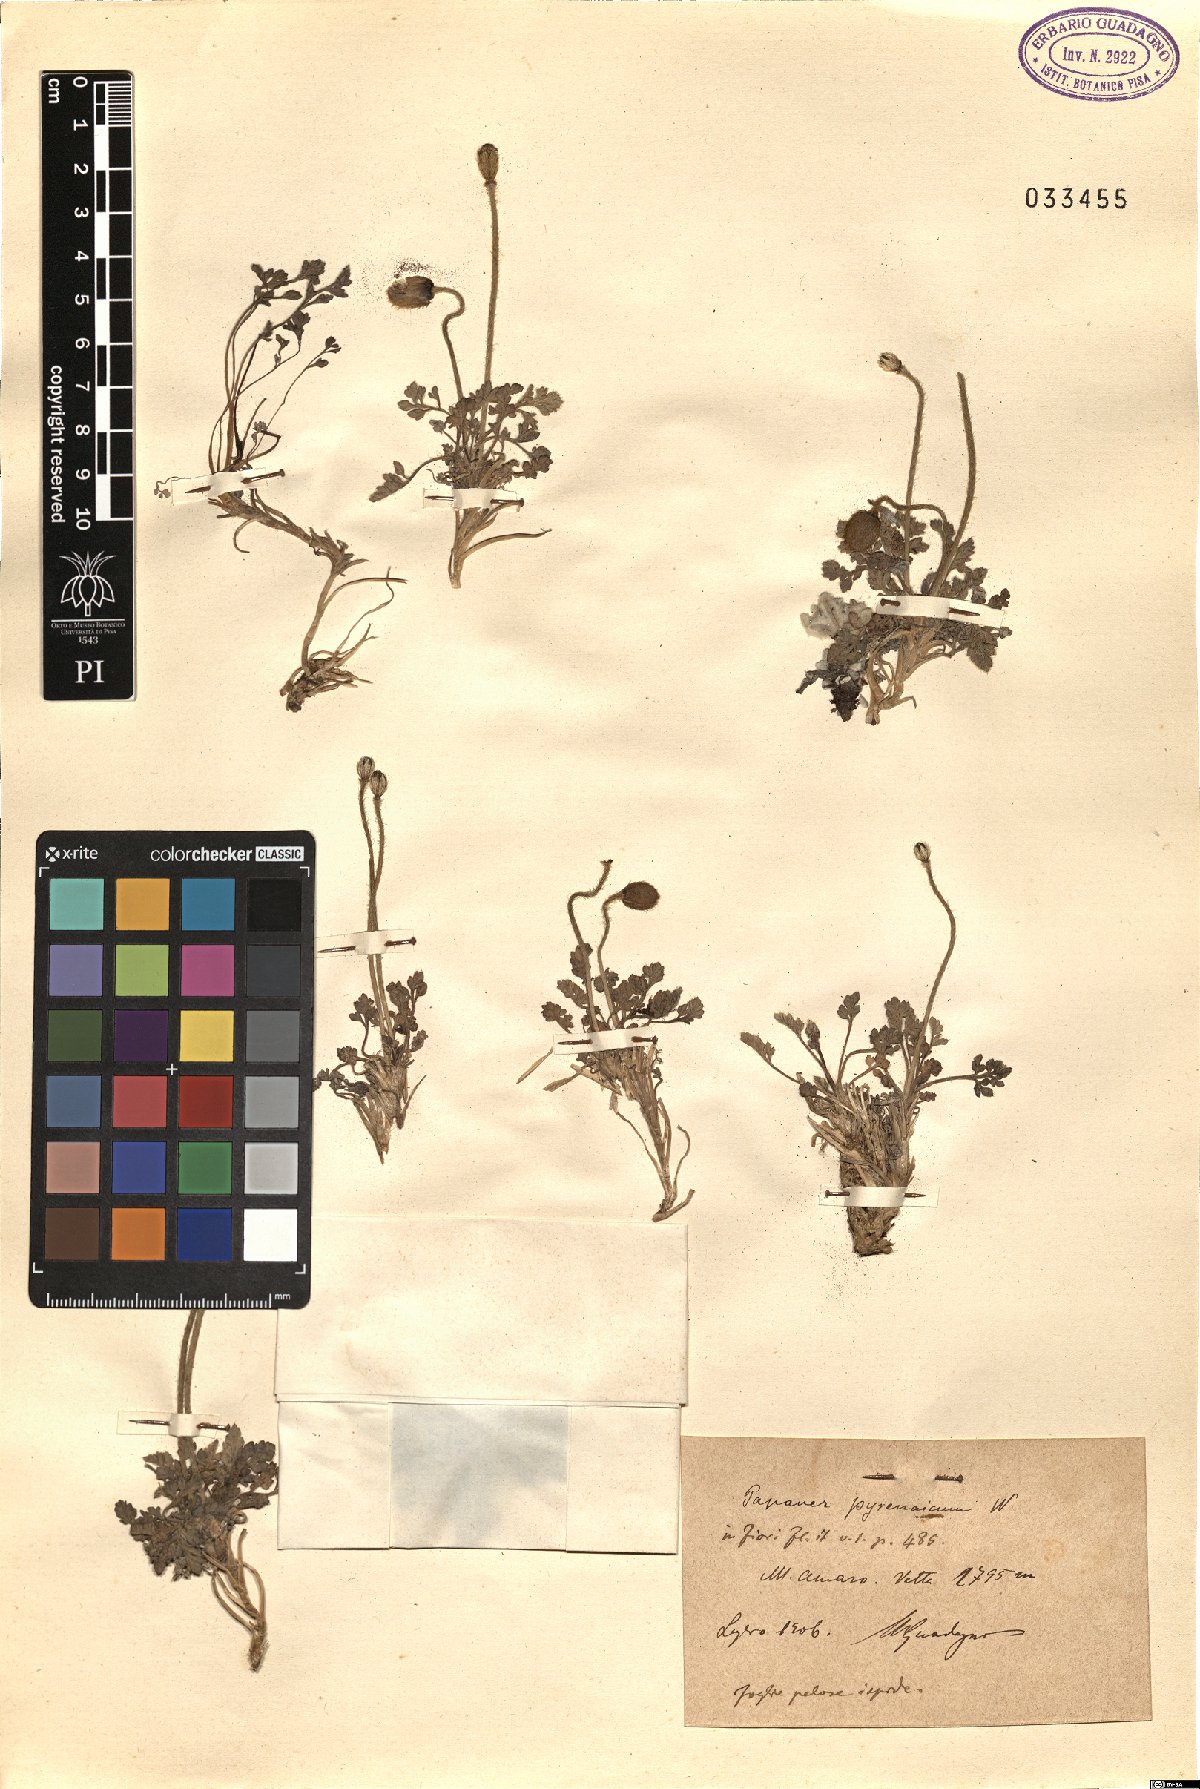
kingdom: Plantae
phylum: Tracheophyta
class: Magnoliopsida
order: Ranunculales
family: Papaveraceae
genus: Papaver
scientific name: Papaver alpinum
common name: Austrian poppy
